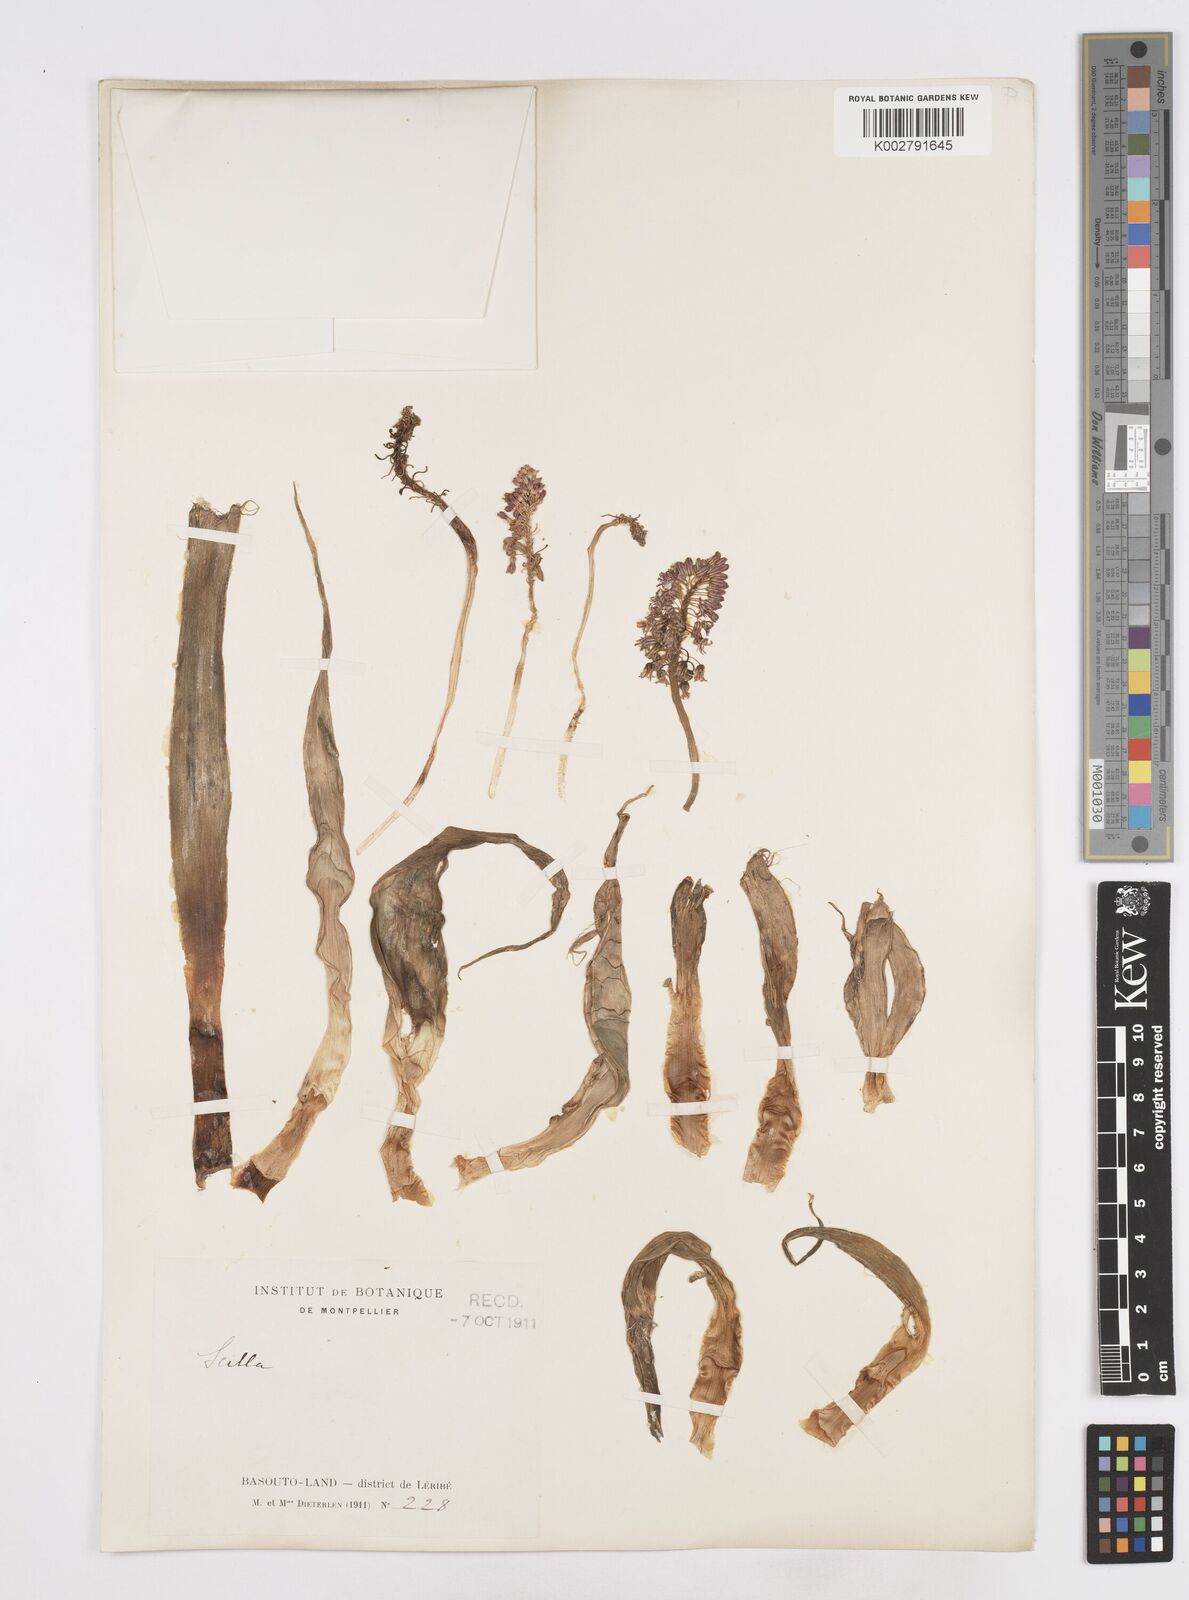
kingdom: Plantae
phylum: Tracheophyta
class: Liliopsida
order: Asparagales
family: Asparagaceae
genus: Scilla
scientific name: Scilla
